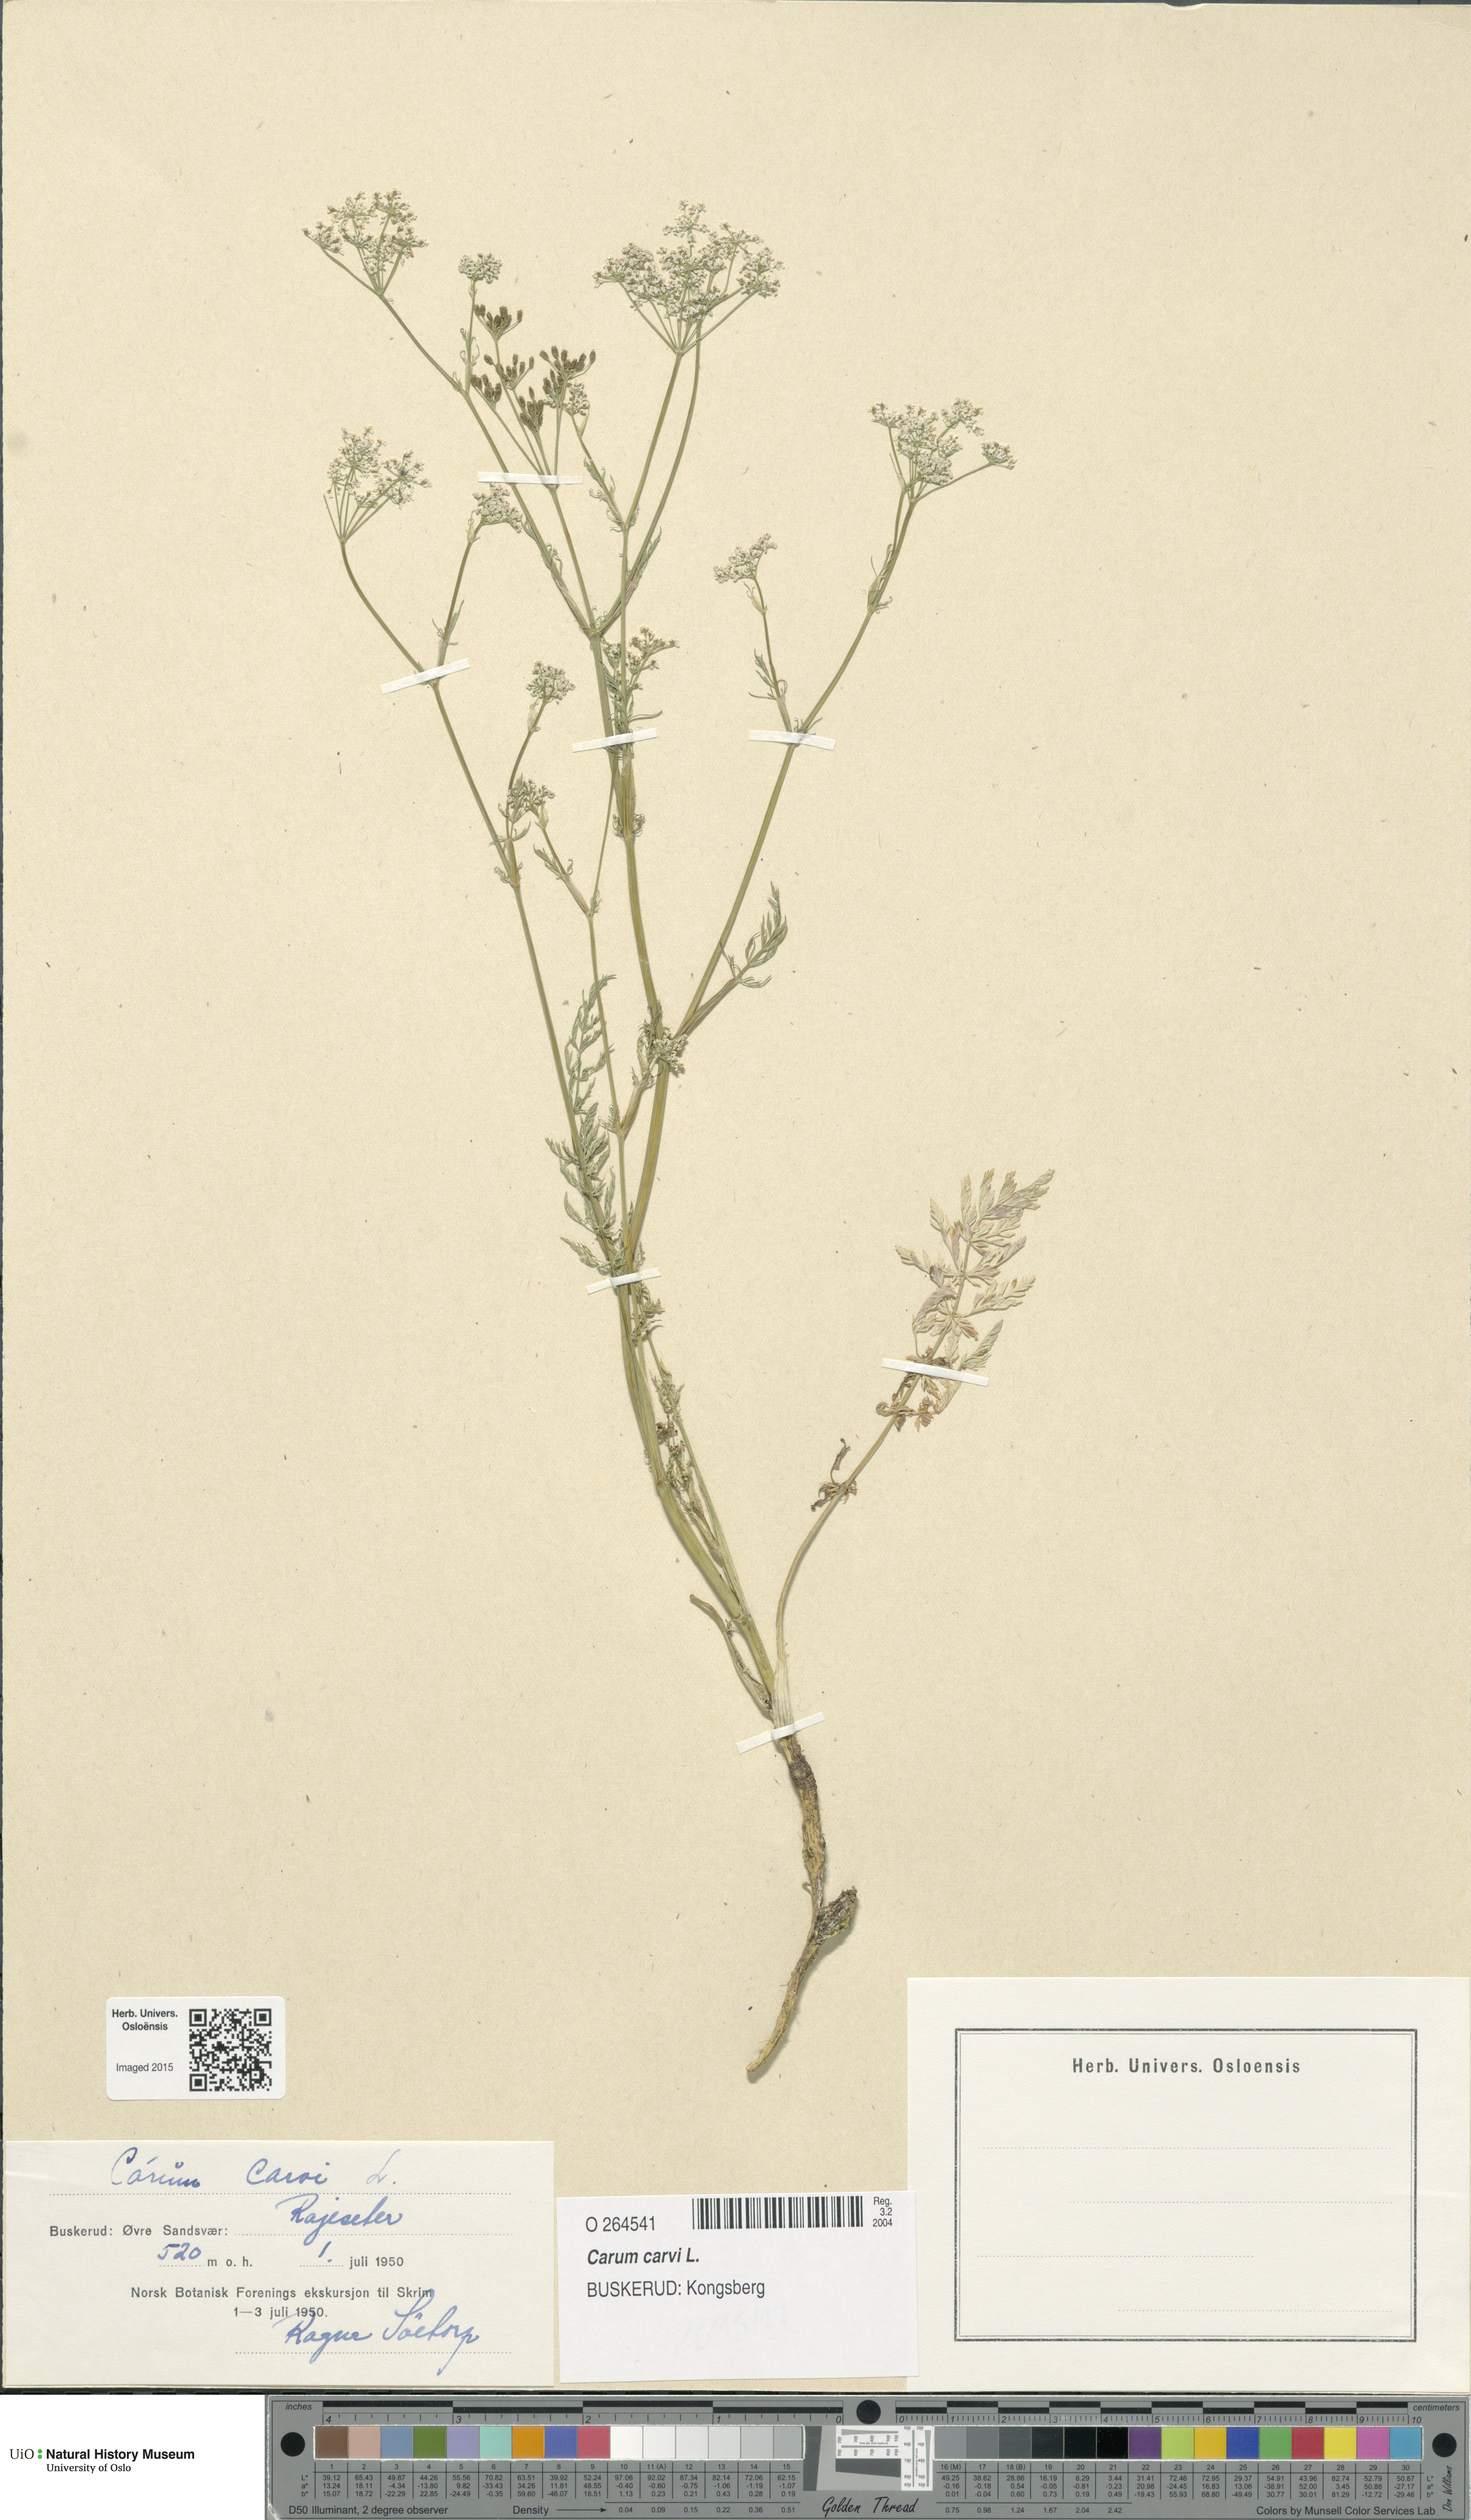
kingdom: Plantae
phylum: Tracheophyta
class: Magnoliopsida
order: Apiales
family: Apiaceae
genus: Carum
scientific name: Carum carvi
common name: Caraway
